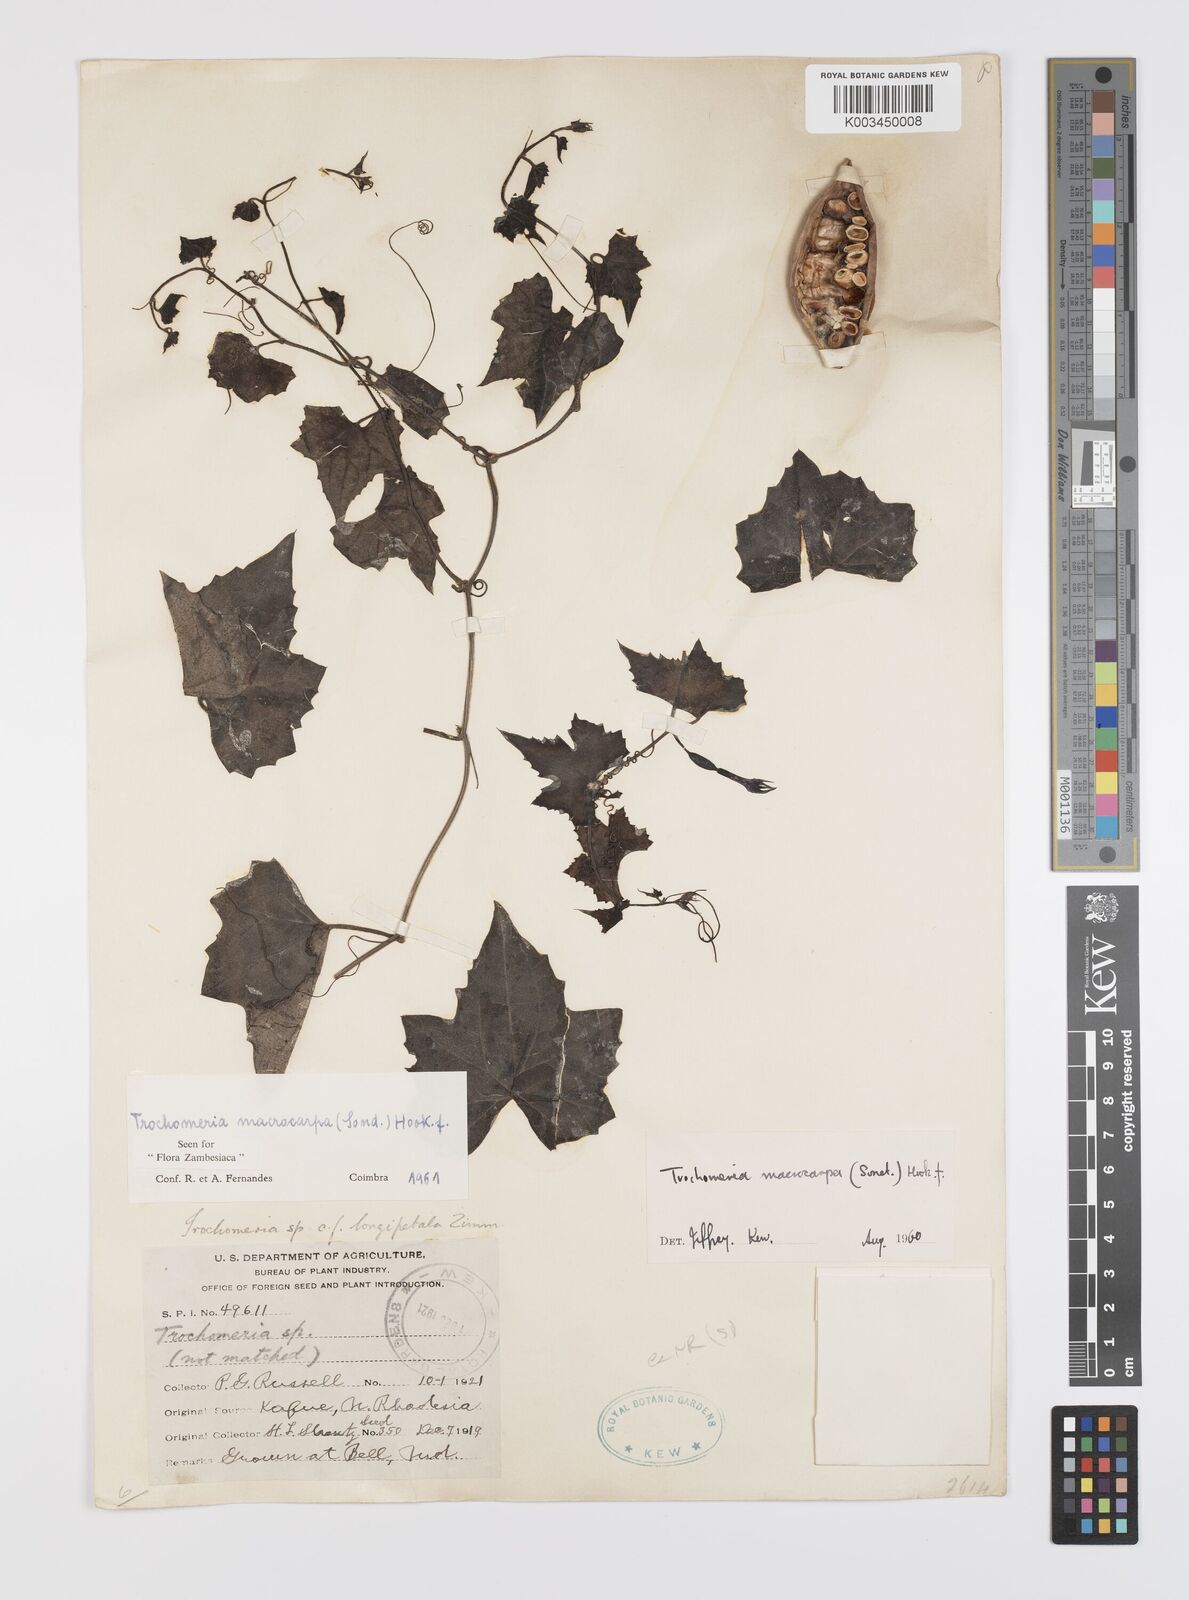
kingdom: Plantae
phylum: Tracheophyta
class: Magnoliopsida
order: Cucurbitales
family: Cucurbitaceae
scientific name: Cucurbitaceae
